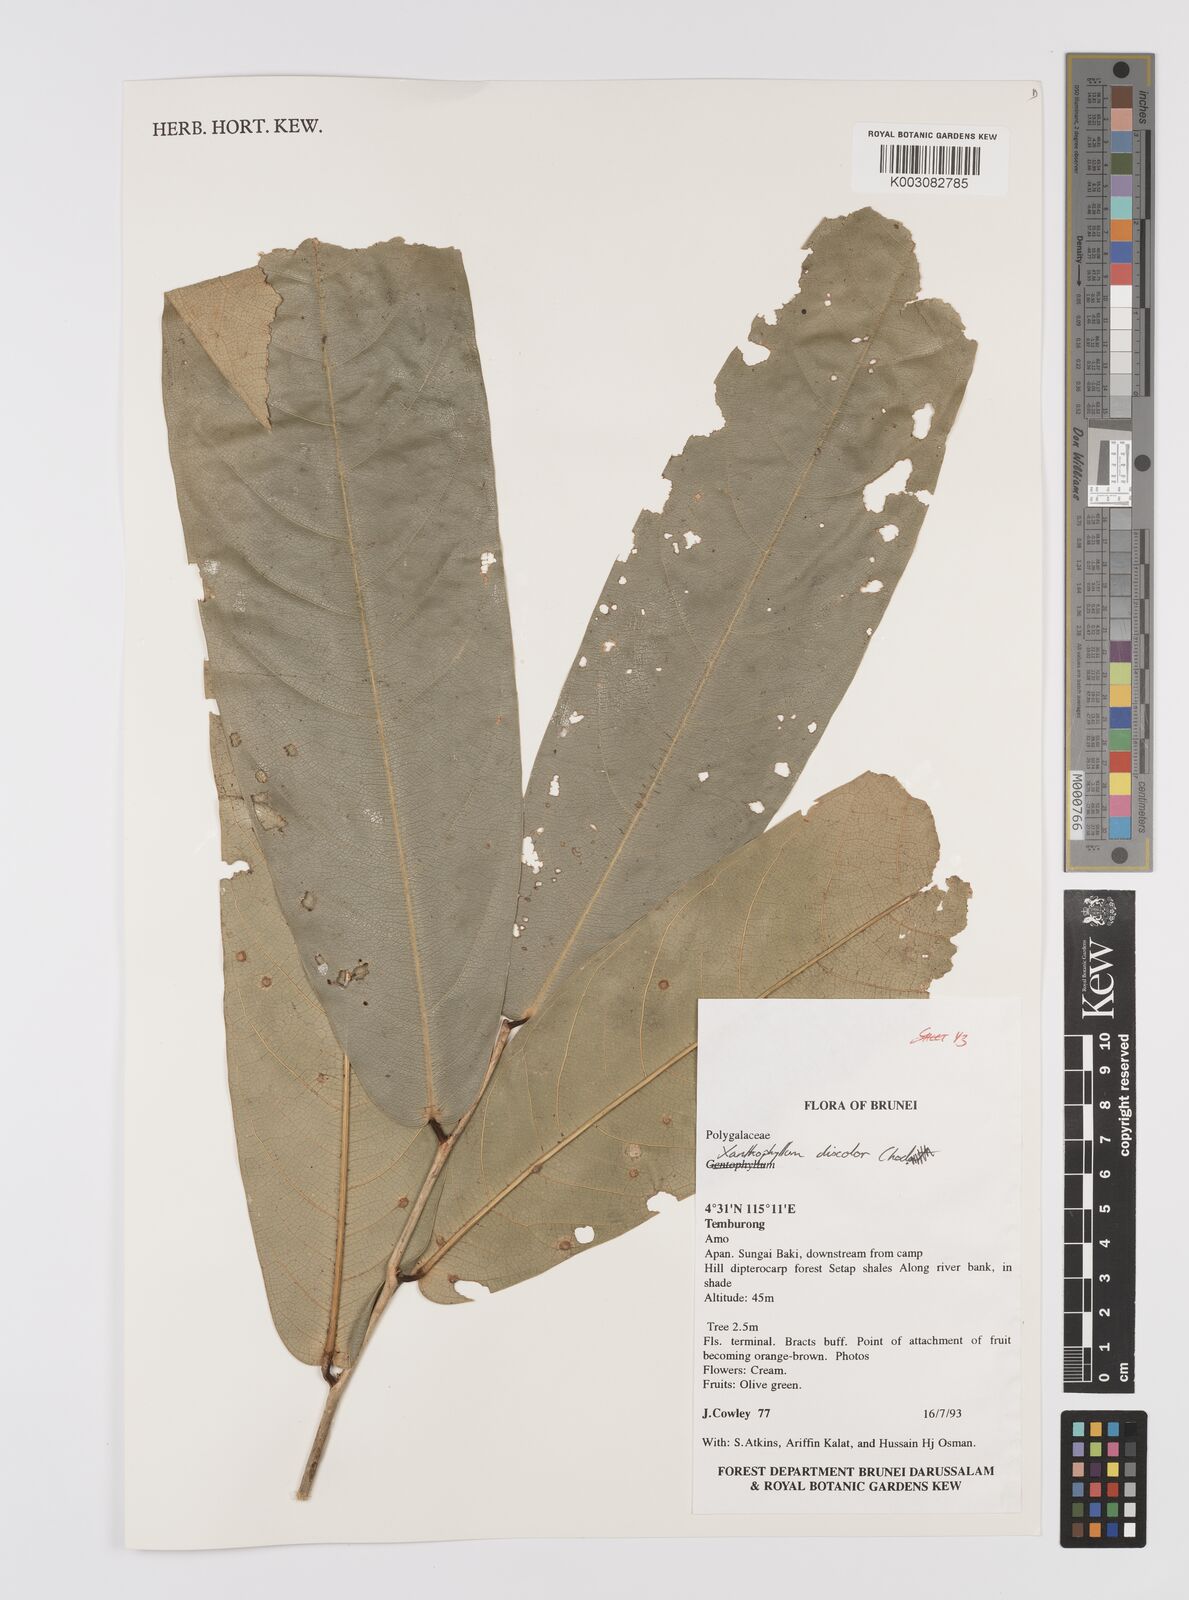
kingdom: Plantae
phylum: Tracheophyta
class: Magnoliopsida
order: Fabales
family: Polygalaceae
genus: Xanthophyllum
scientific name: Xanthophyllum discolor
